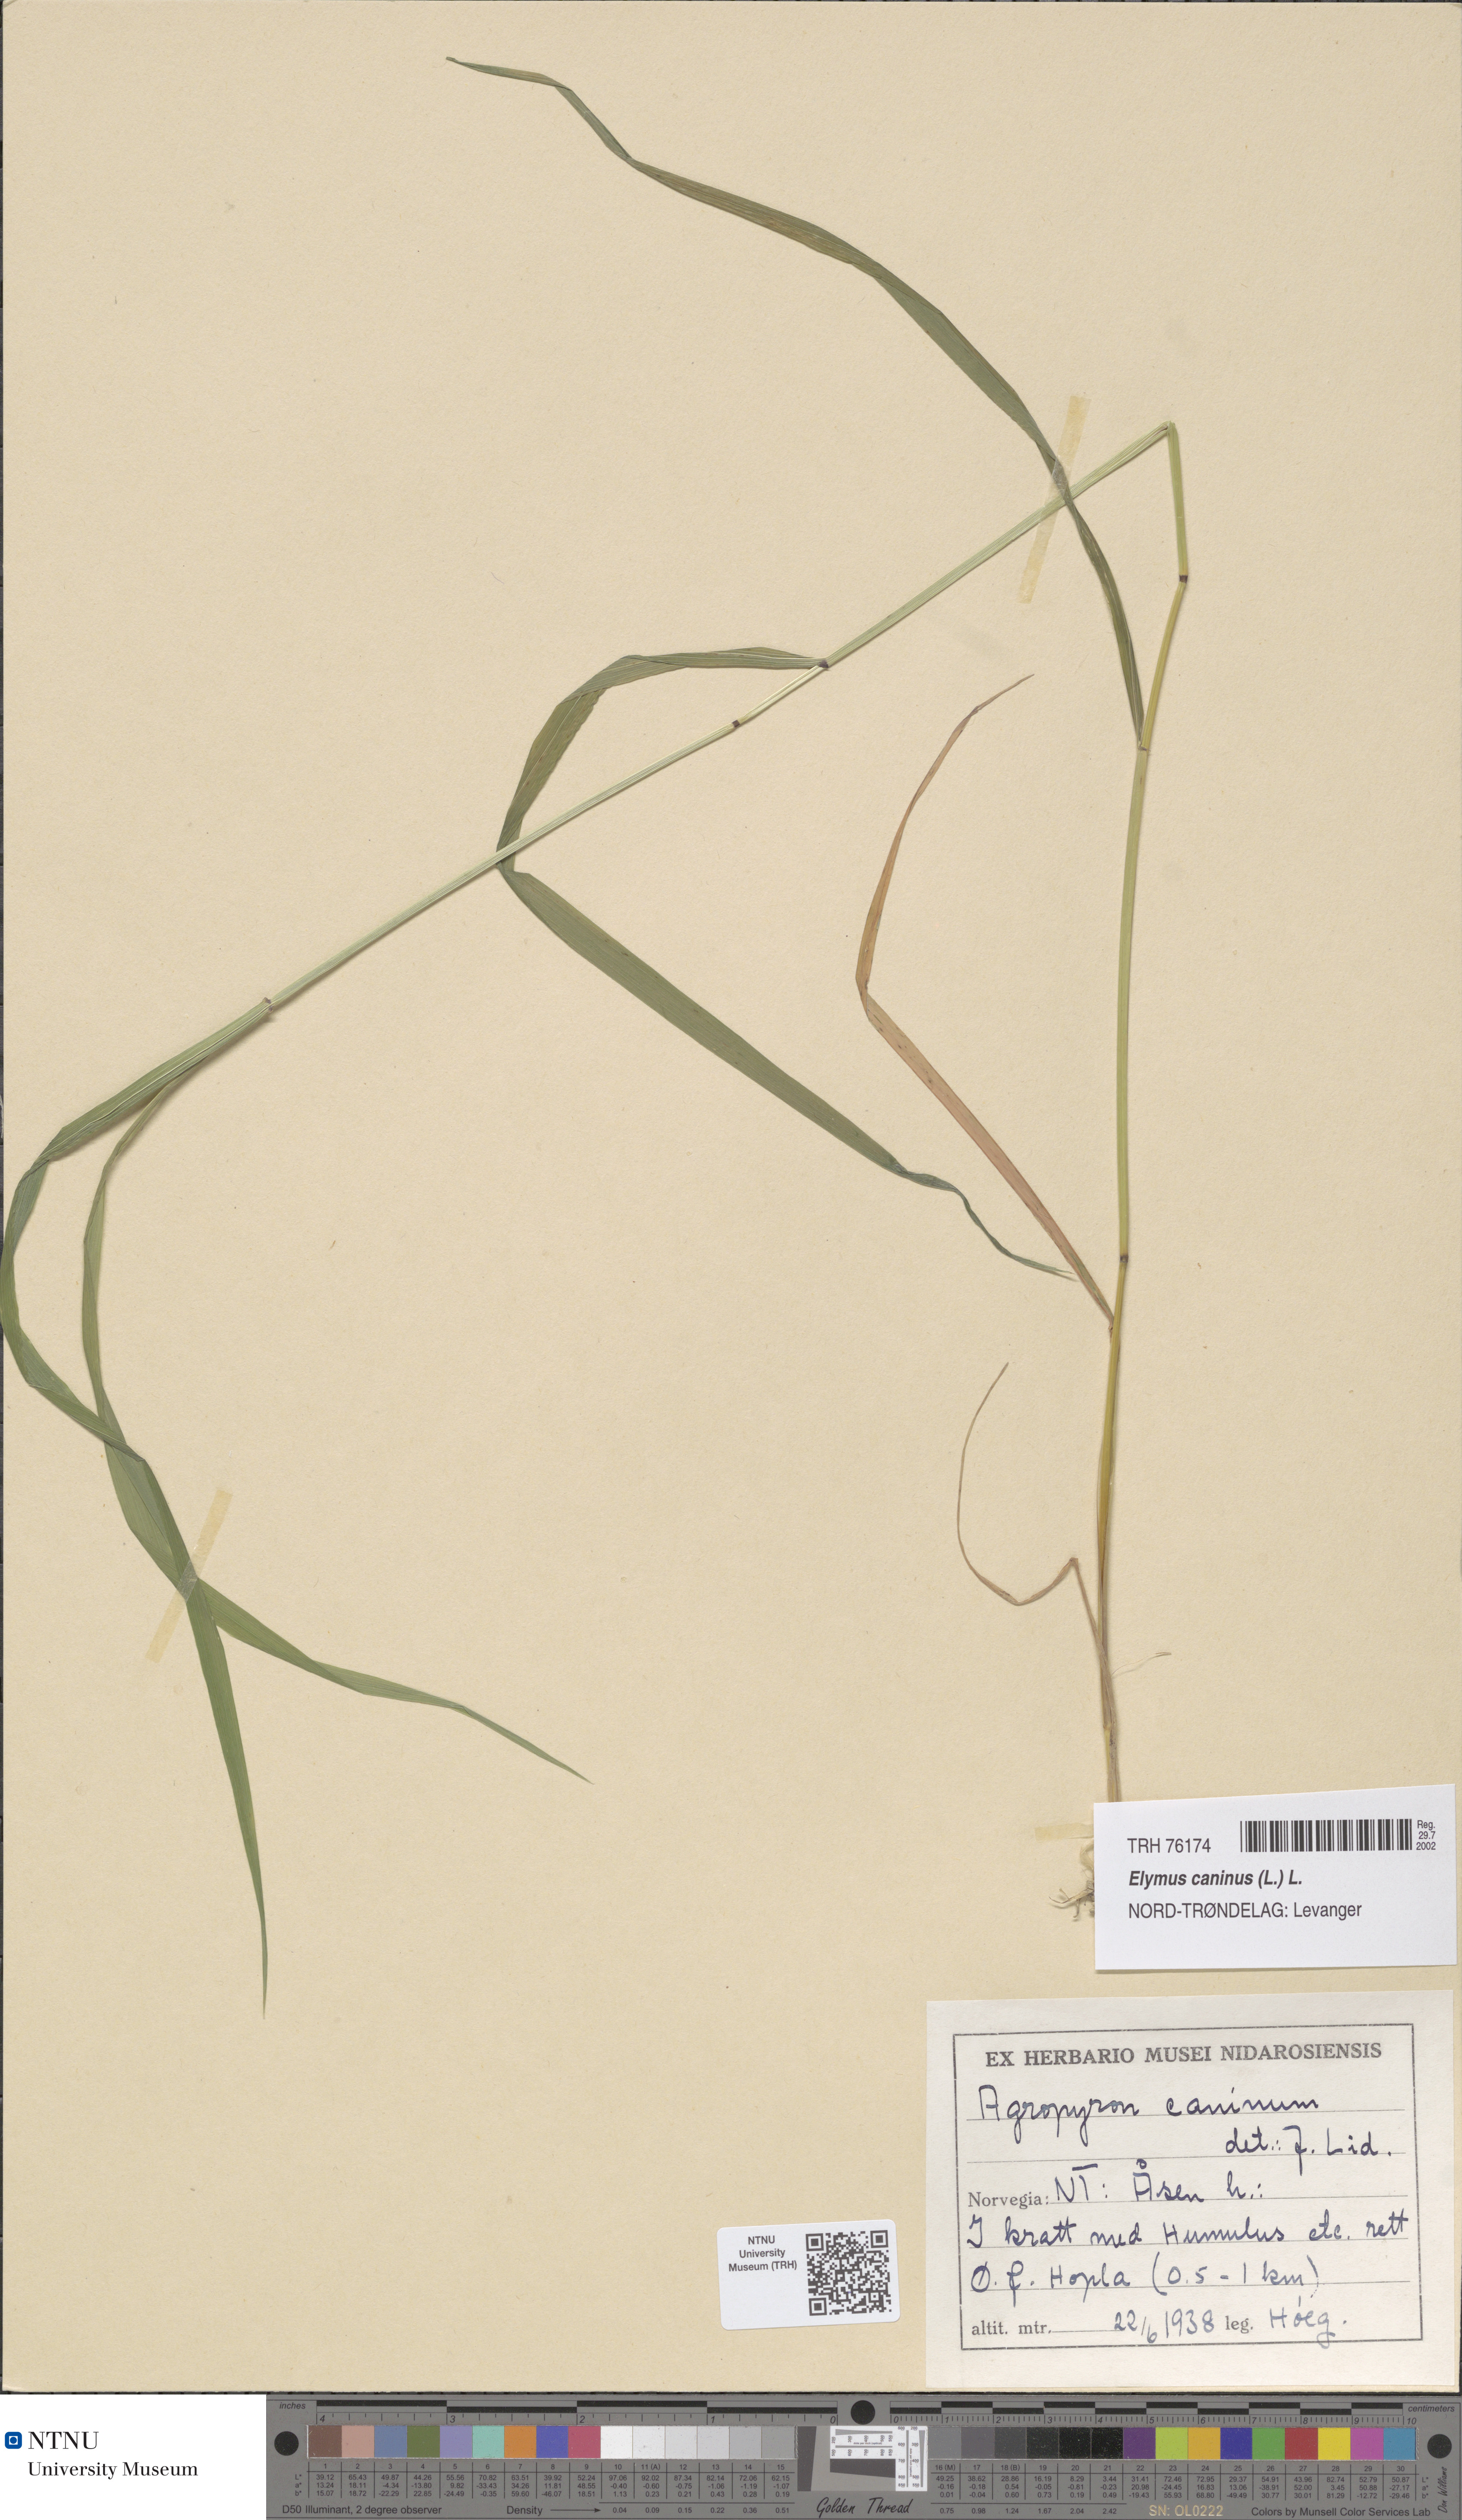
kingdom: Plantae
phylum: Tracheophyta
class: Liliopsida
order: Poales
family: Poaceae
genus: Elymus
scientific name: Elymus caninus
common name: Bearded couch
